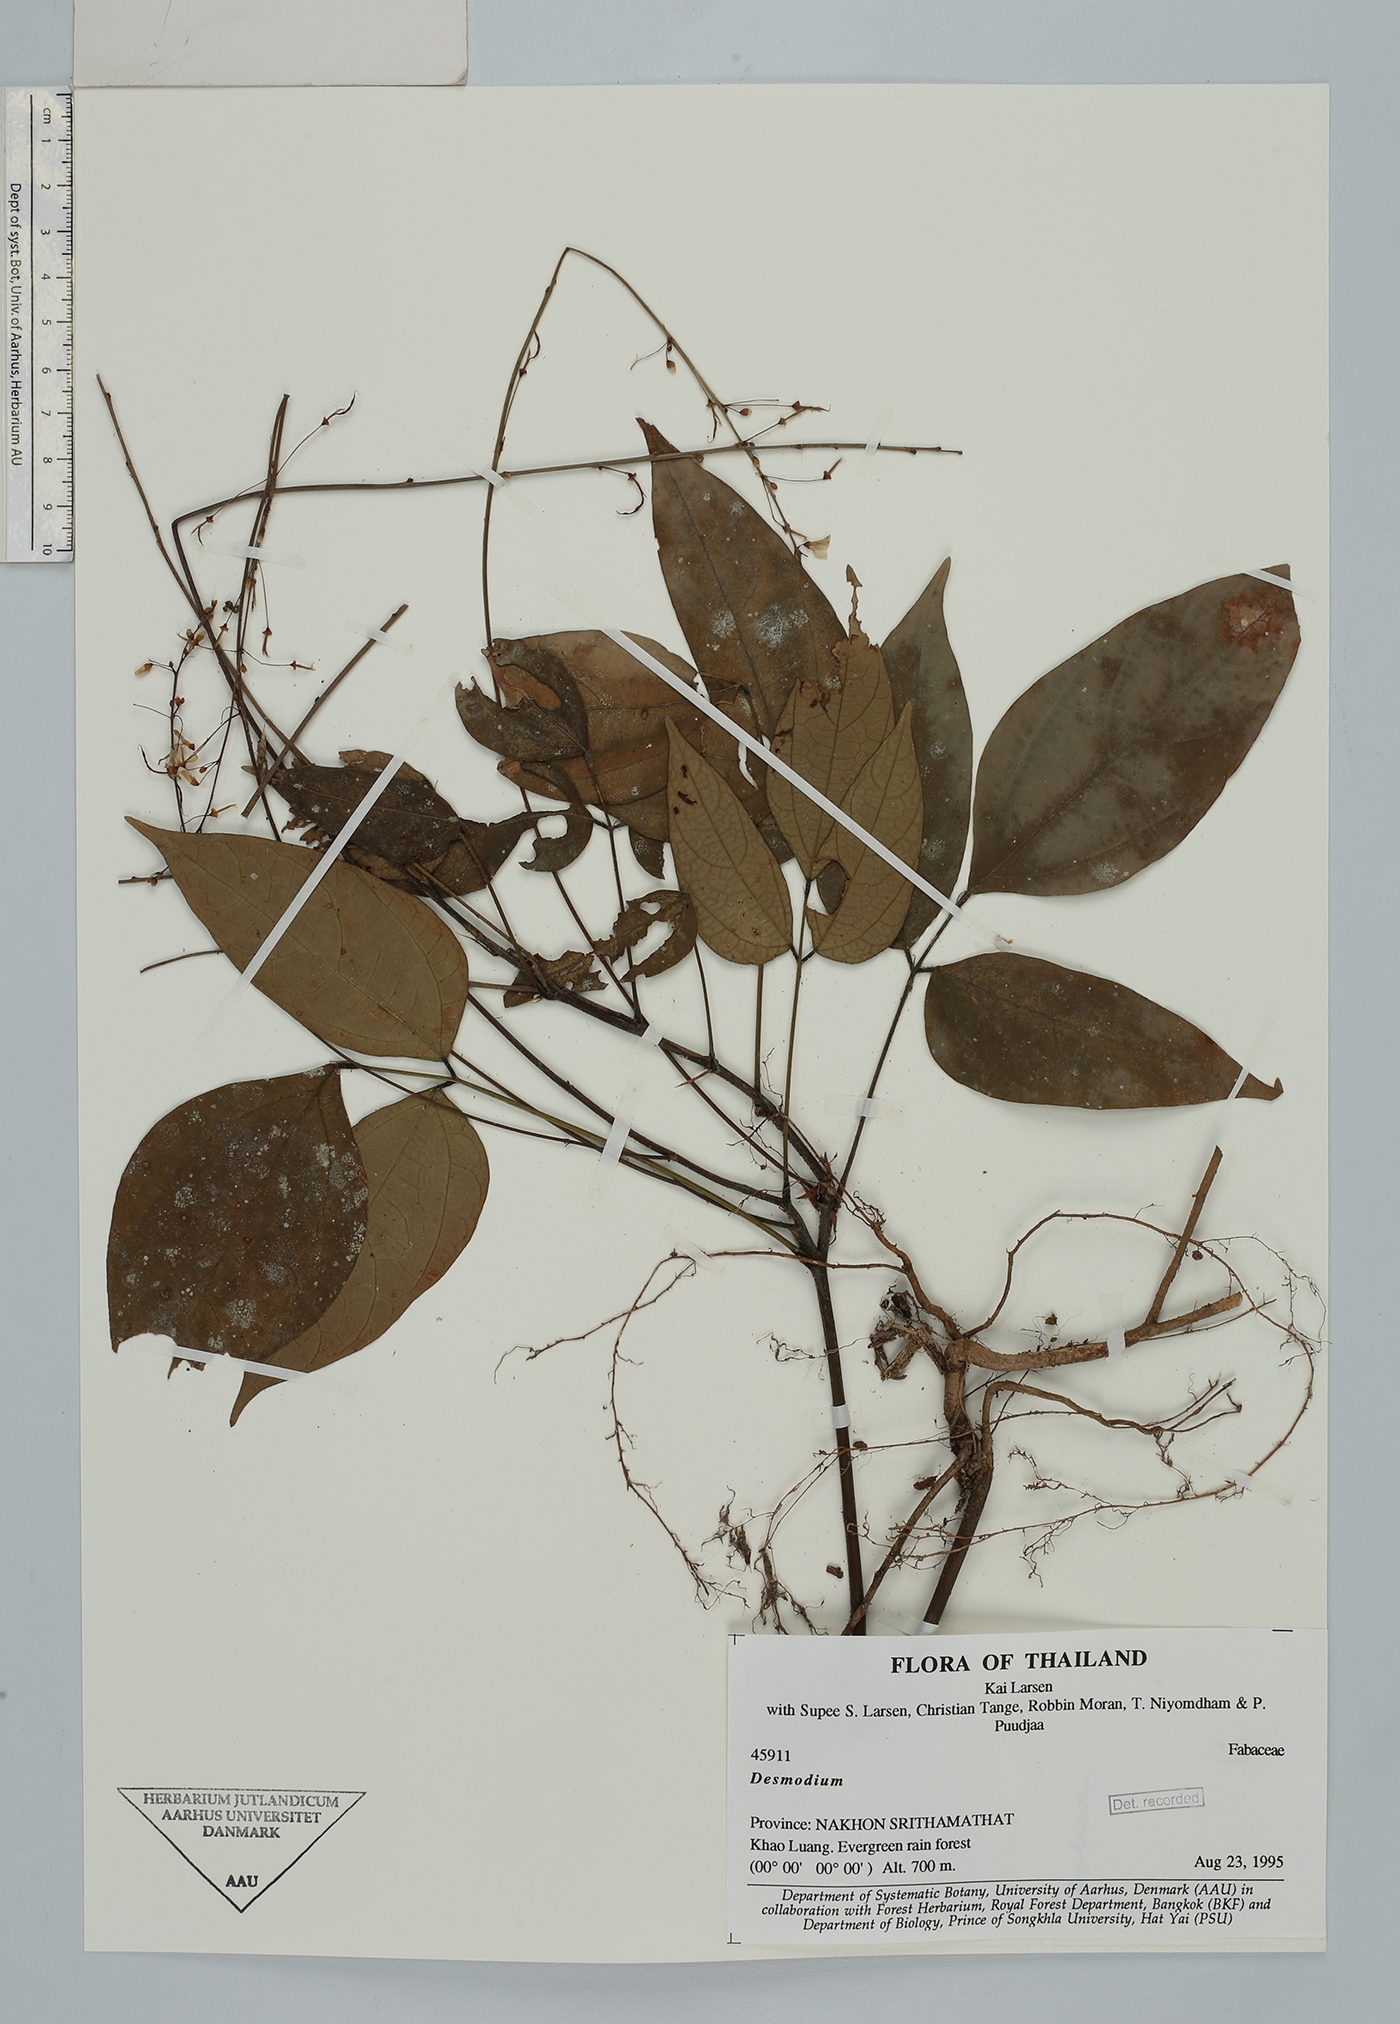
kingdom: Plantae
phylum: Tracheophyta
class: Magnoliopsida
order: Fabales
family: Fabaceae
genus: Hylodesmum
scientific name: Hylodesmum leptopus
